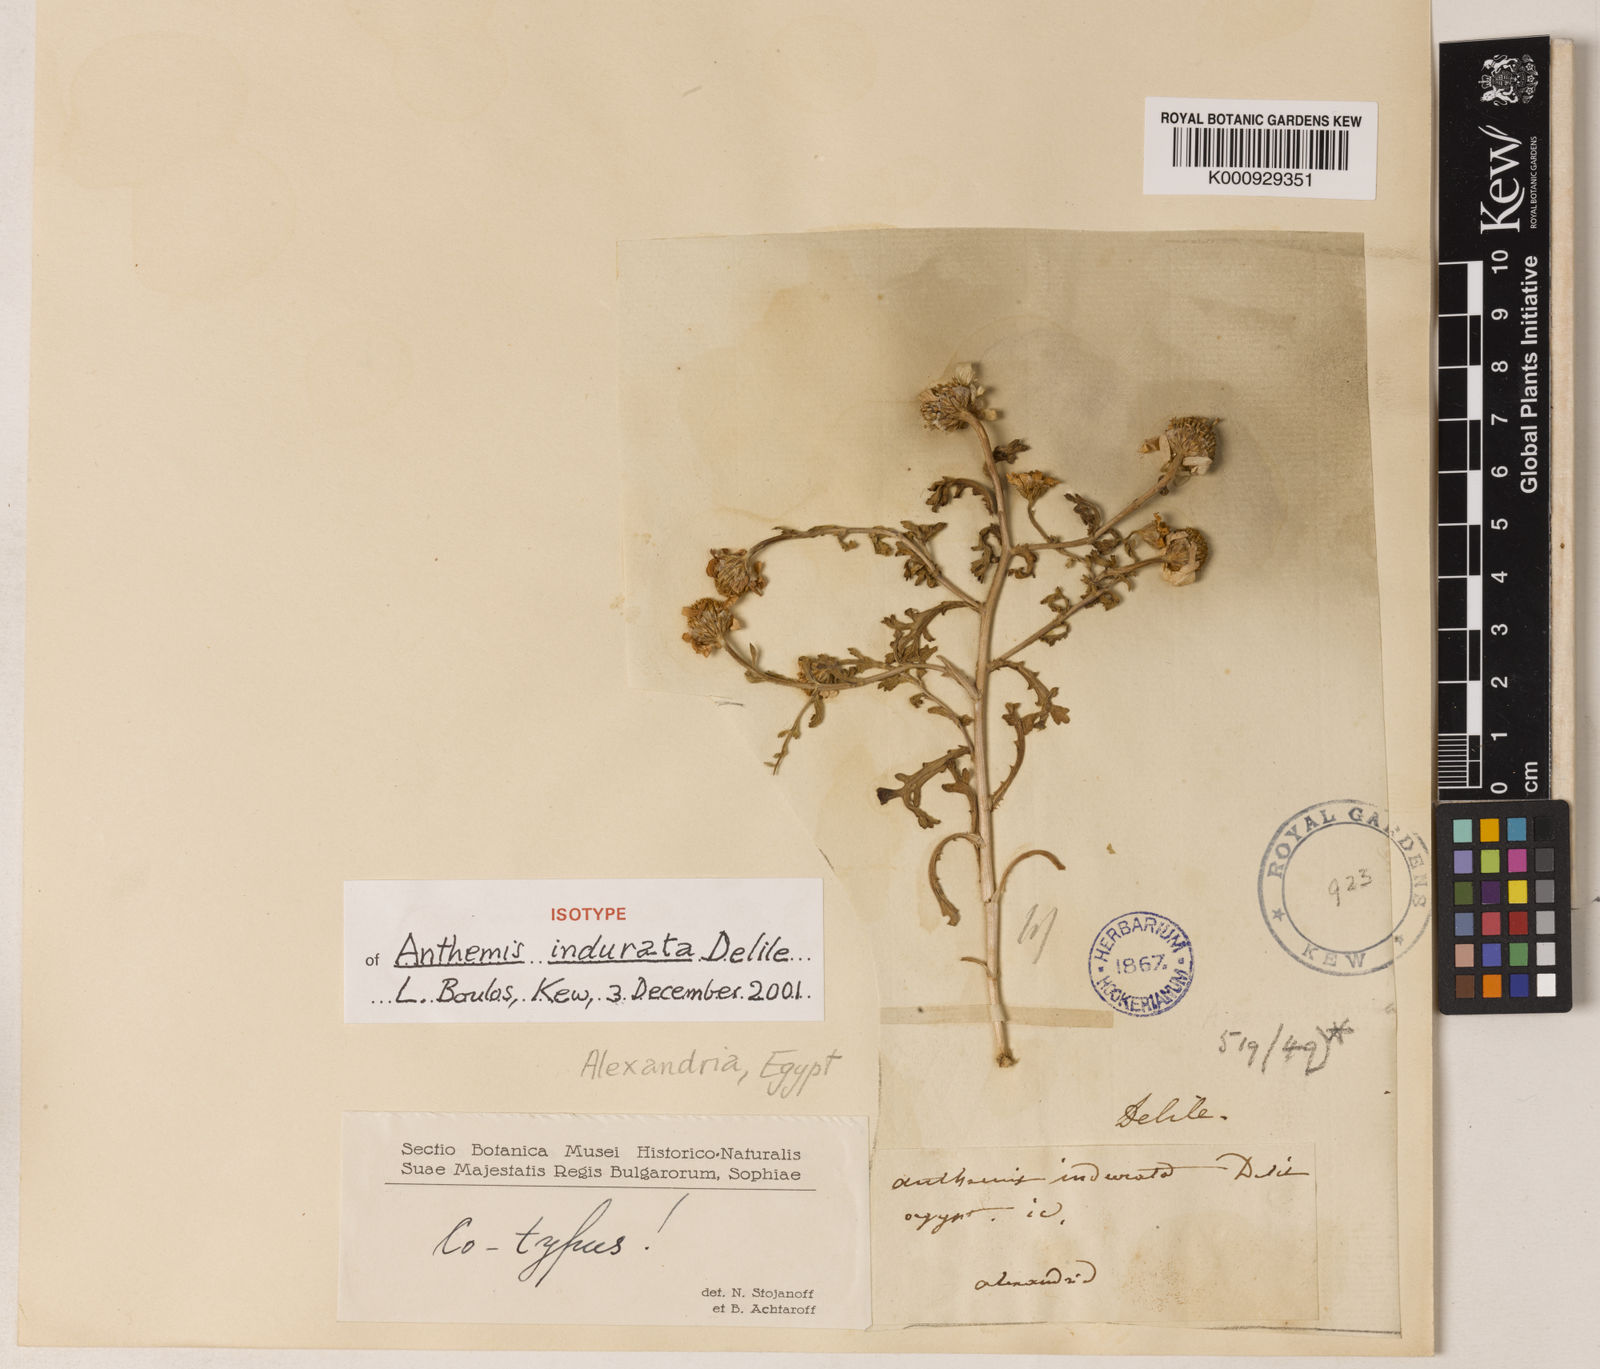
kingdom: Plantae
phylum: Tracheophyta
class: Magnoliopsida
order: Asterales
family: Asteraceae
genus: Anthemis
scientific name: Anthemis indurata
